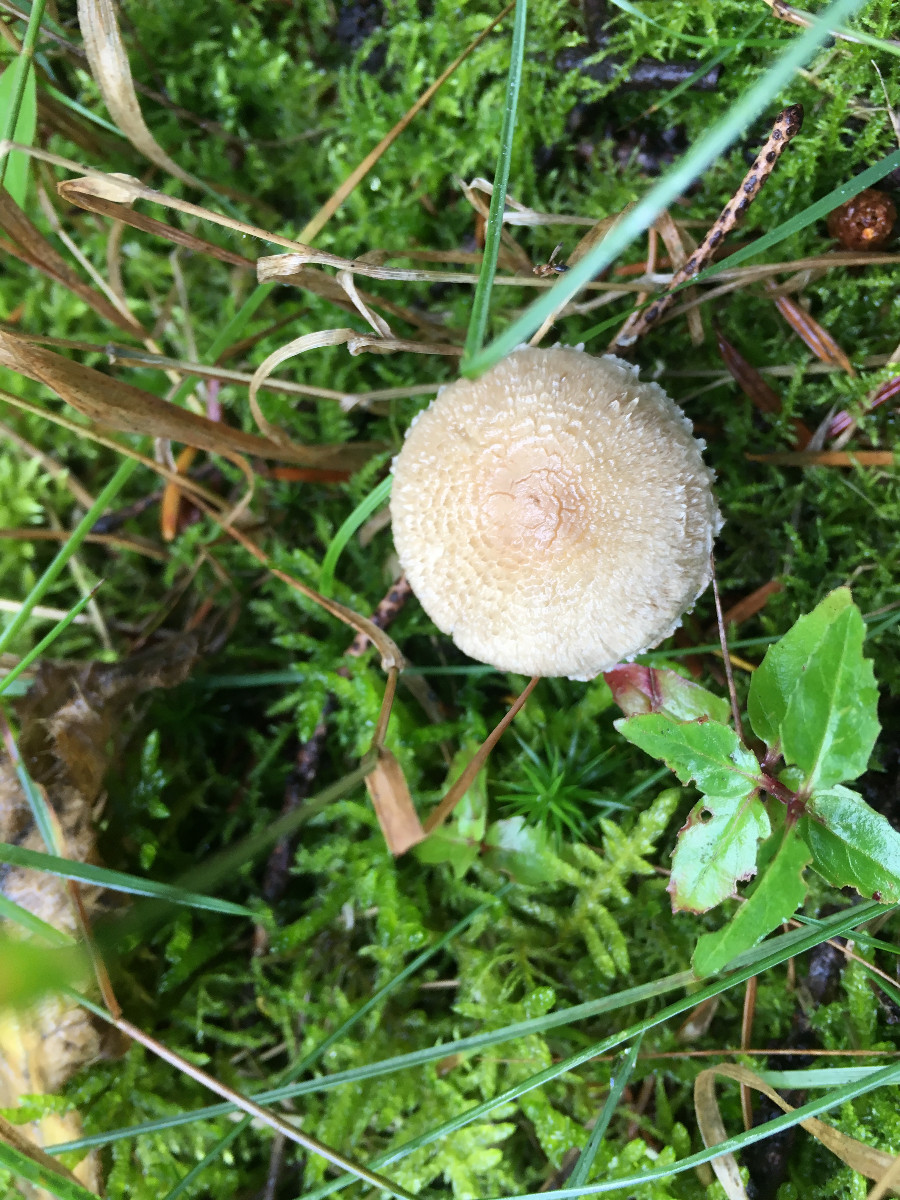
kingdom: Fungi
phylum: Basidiomycota
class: Agaricomycetes
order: Agaricales
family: Inocybaceae
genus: Inocybe
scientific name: Inocybe sindonia
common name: bleg trævlhat
